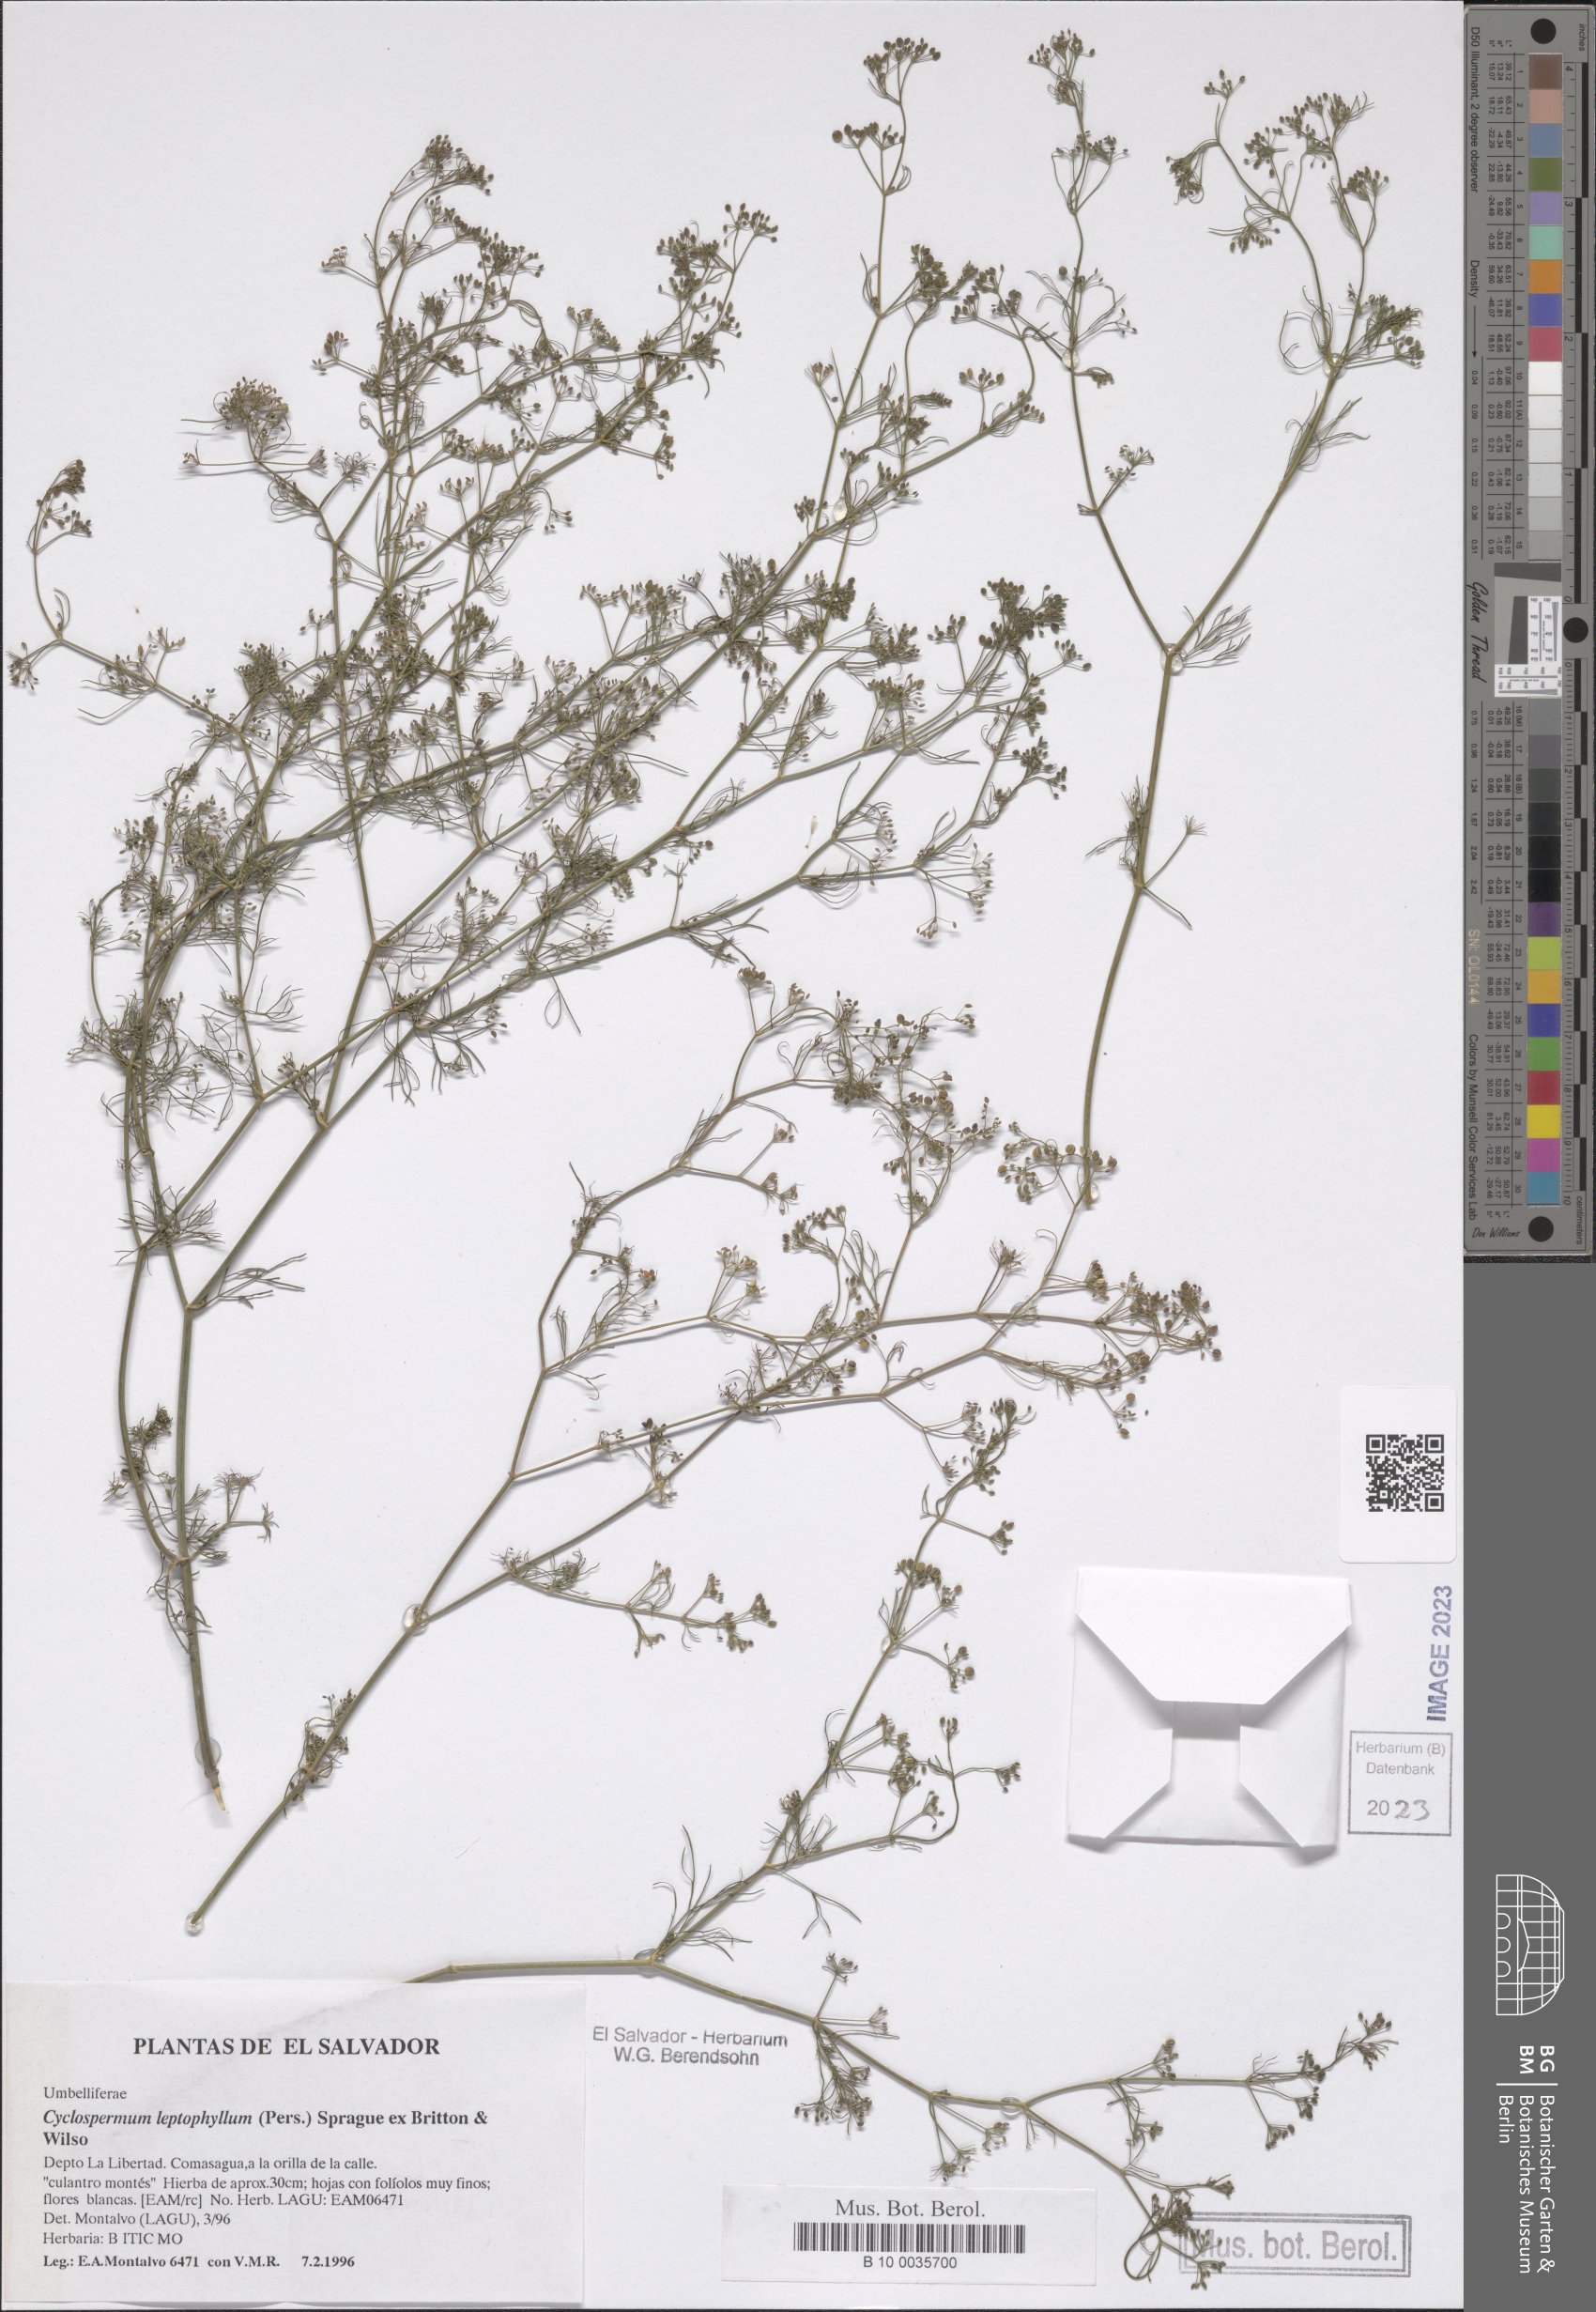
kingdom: Plantae
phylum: Tracheophyta
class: Magnoliopsida
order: Apiales
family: Apiaceae
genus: Cyclospermum
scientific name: Cyclospermum leptophyllum
